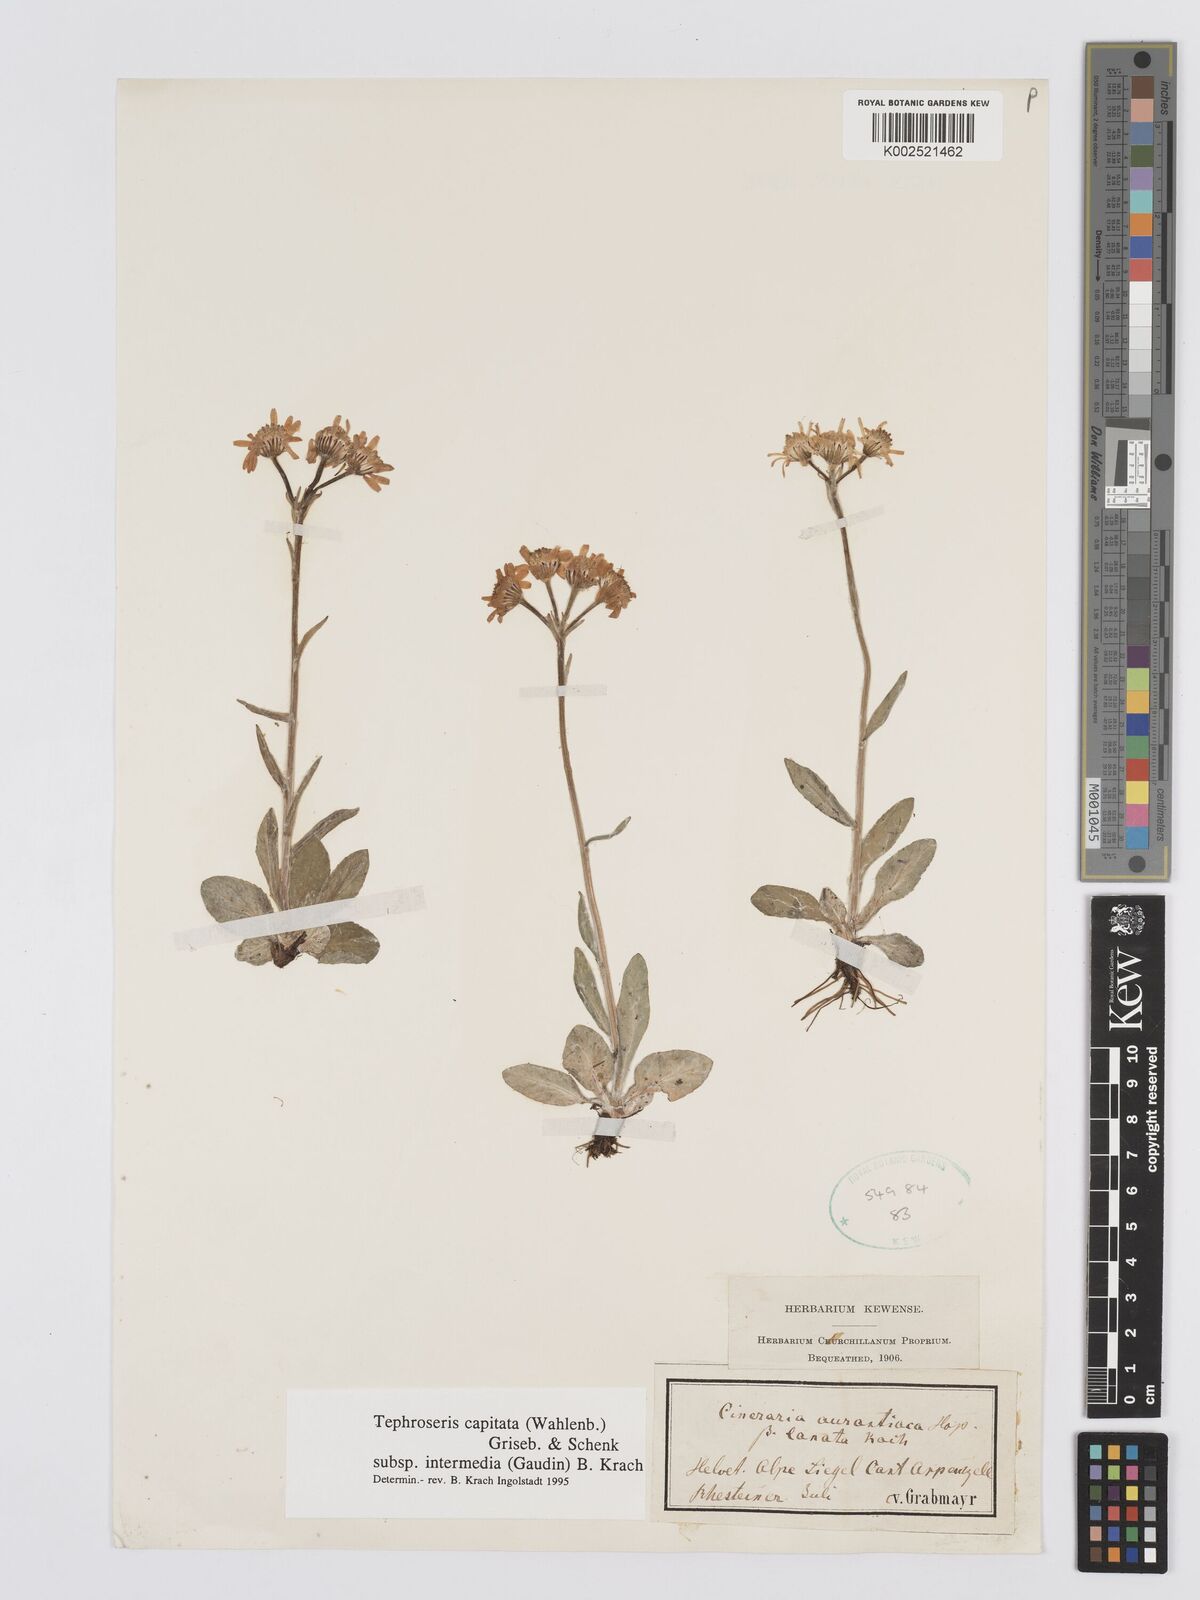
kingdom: Plantae
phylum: Tracheophyta
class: Magnoliopsida
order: Asterales
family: Asteraceae
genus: Tephroseris
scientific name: Tephroseris integrifolia
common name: Field fleawort
